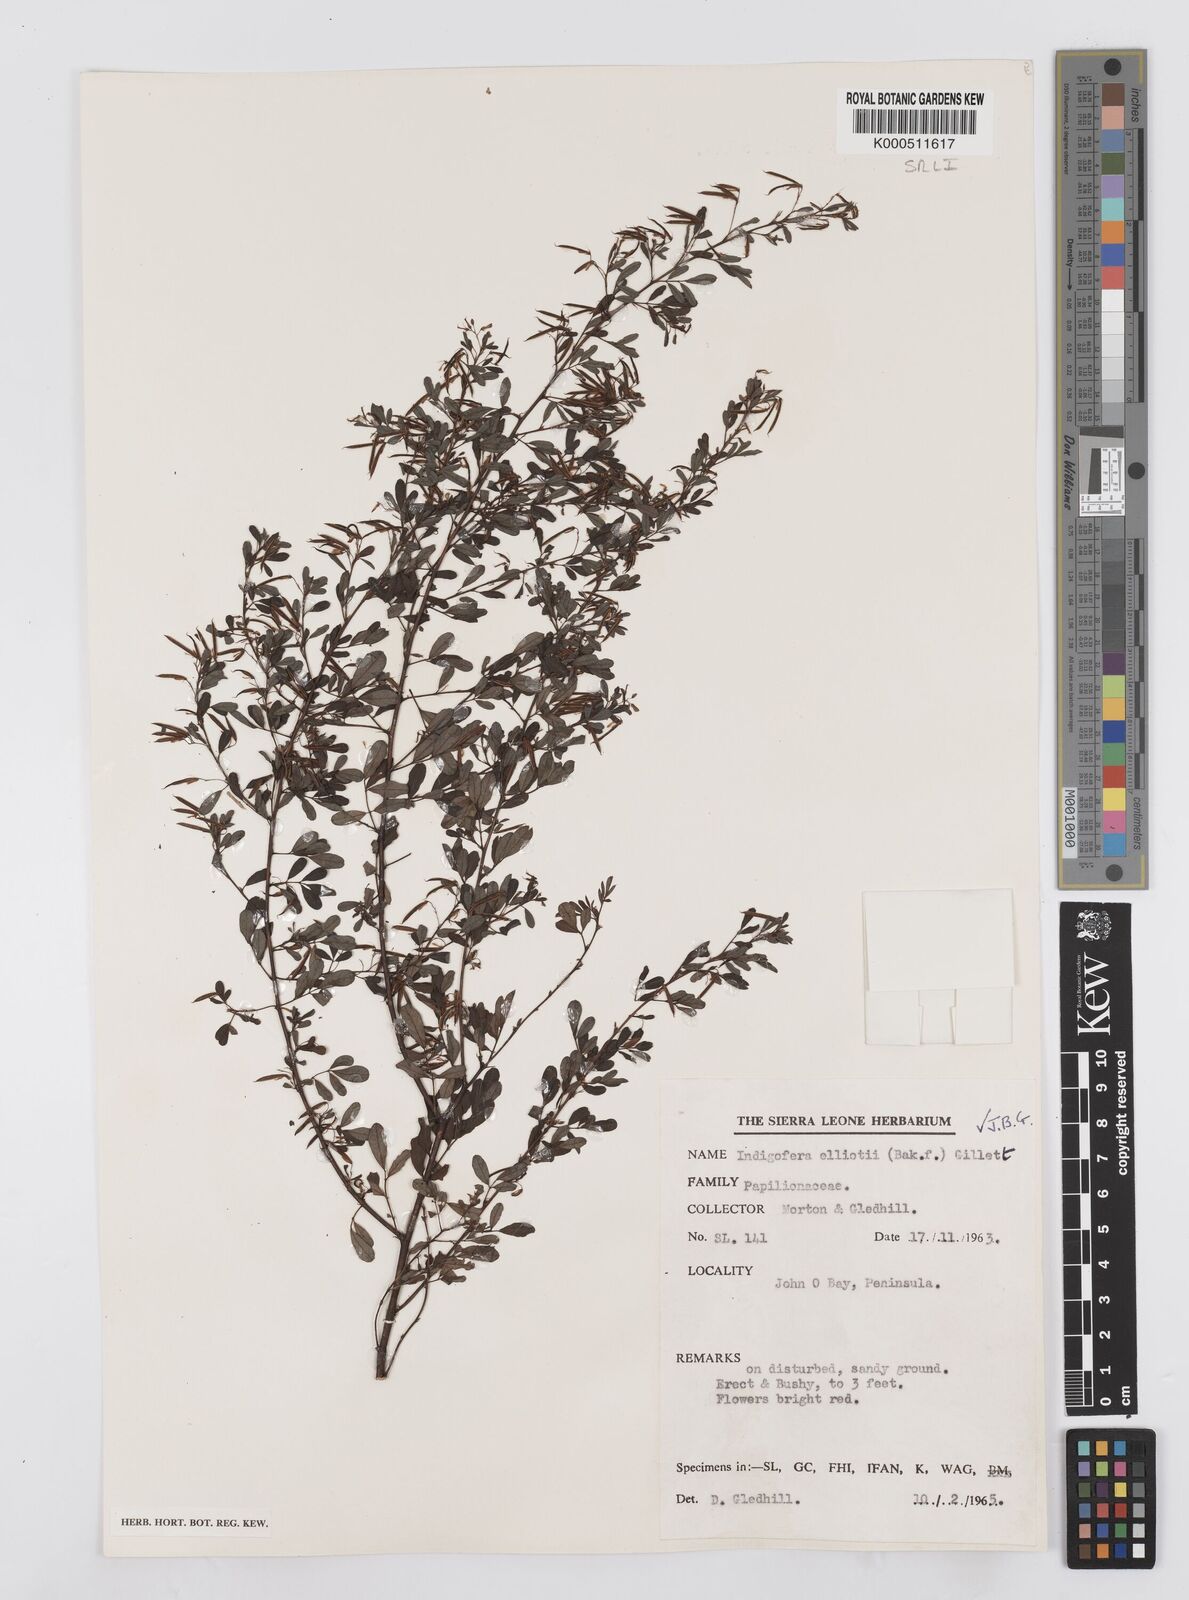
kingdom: Plantae
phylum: Tracheophyta
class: Magnoliopsida
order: Fabales
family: Fabaceae
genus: Indigofera
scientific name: Indigofera elliotii
